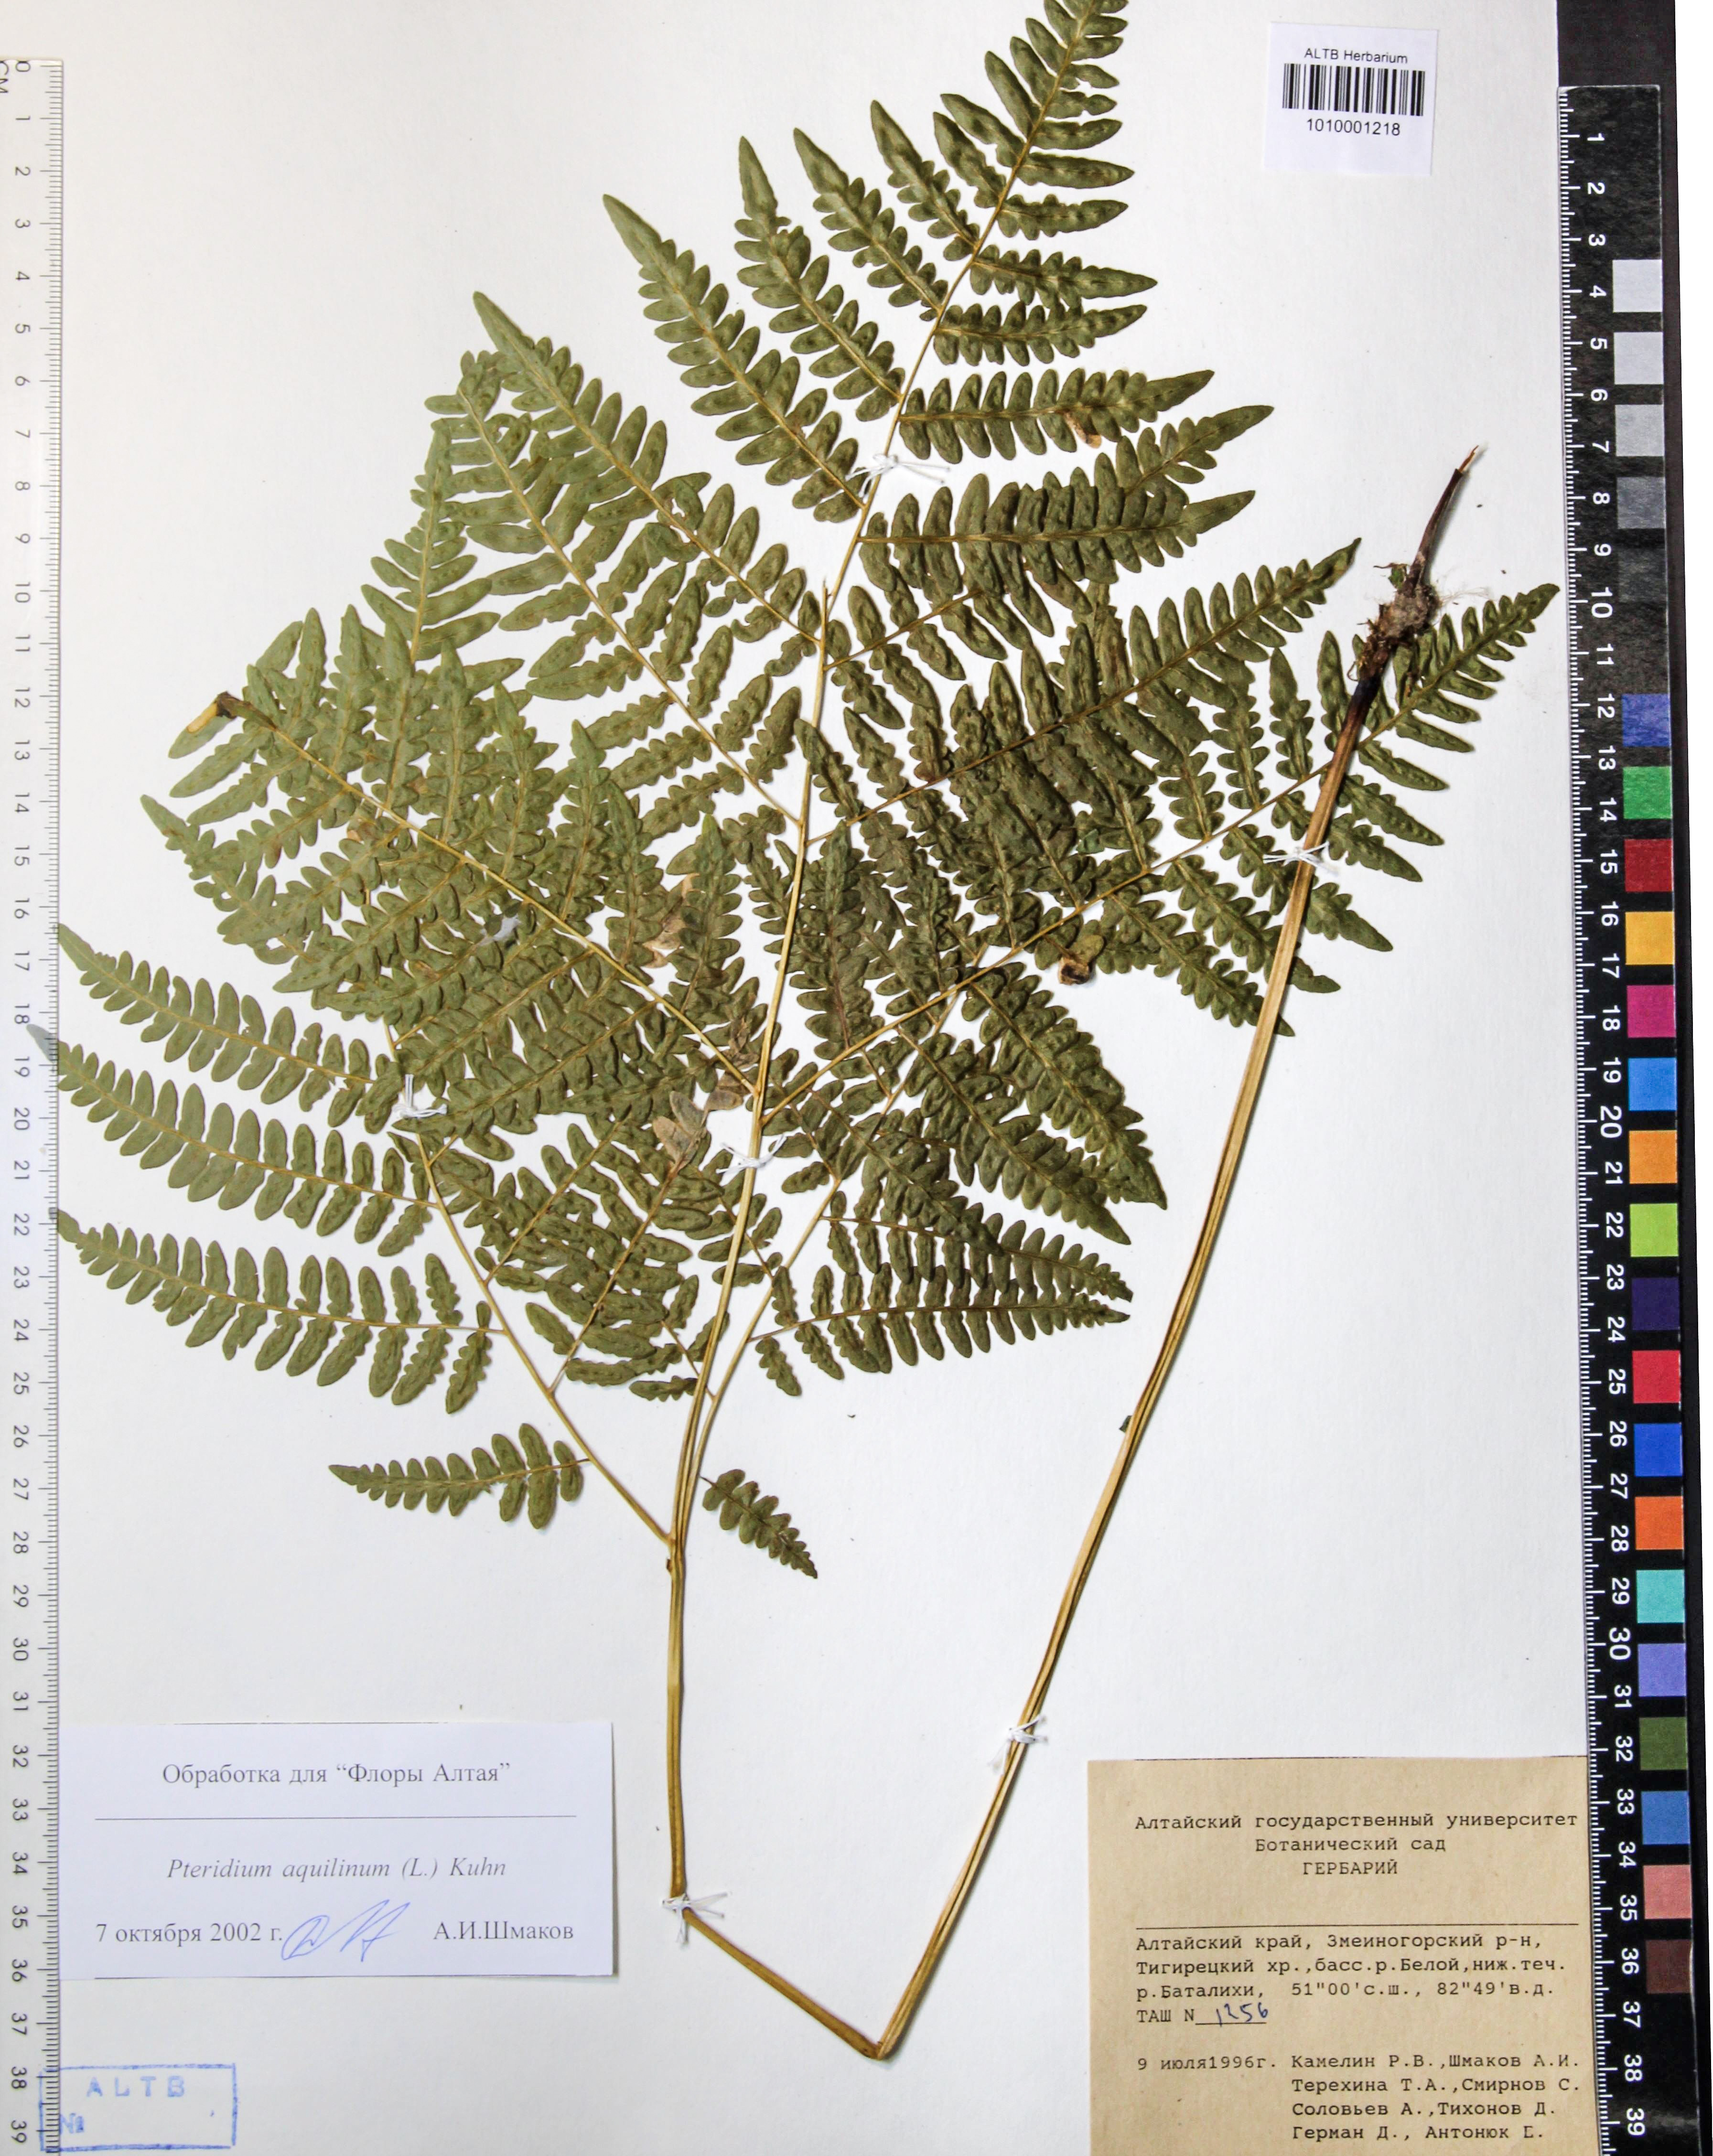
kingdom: Plantae
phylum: Tracheophyta
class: Polypodiopsida
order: Polypodiales
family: Dennstaedtiaceae
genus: Pteridium
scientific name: Pteridium aquilinum
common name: Bracken
